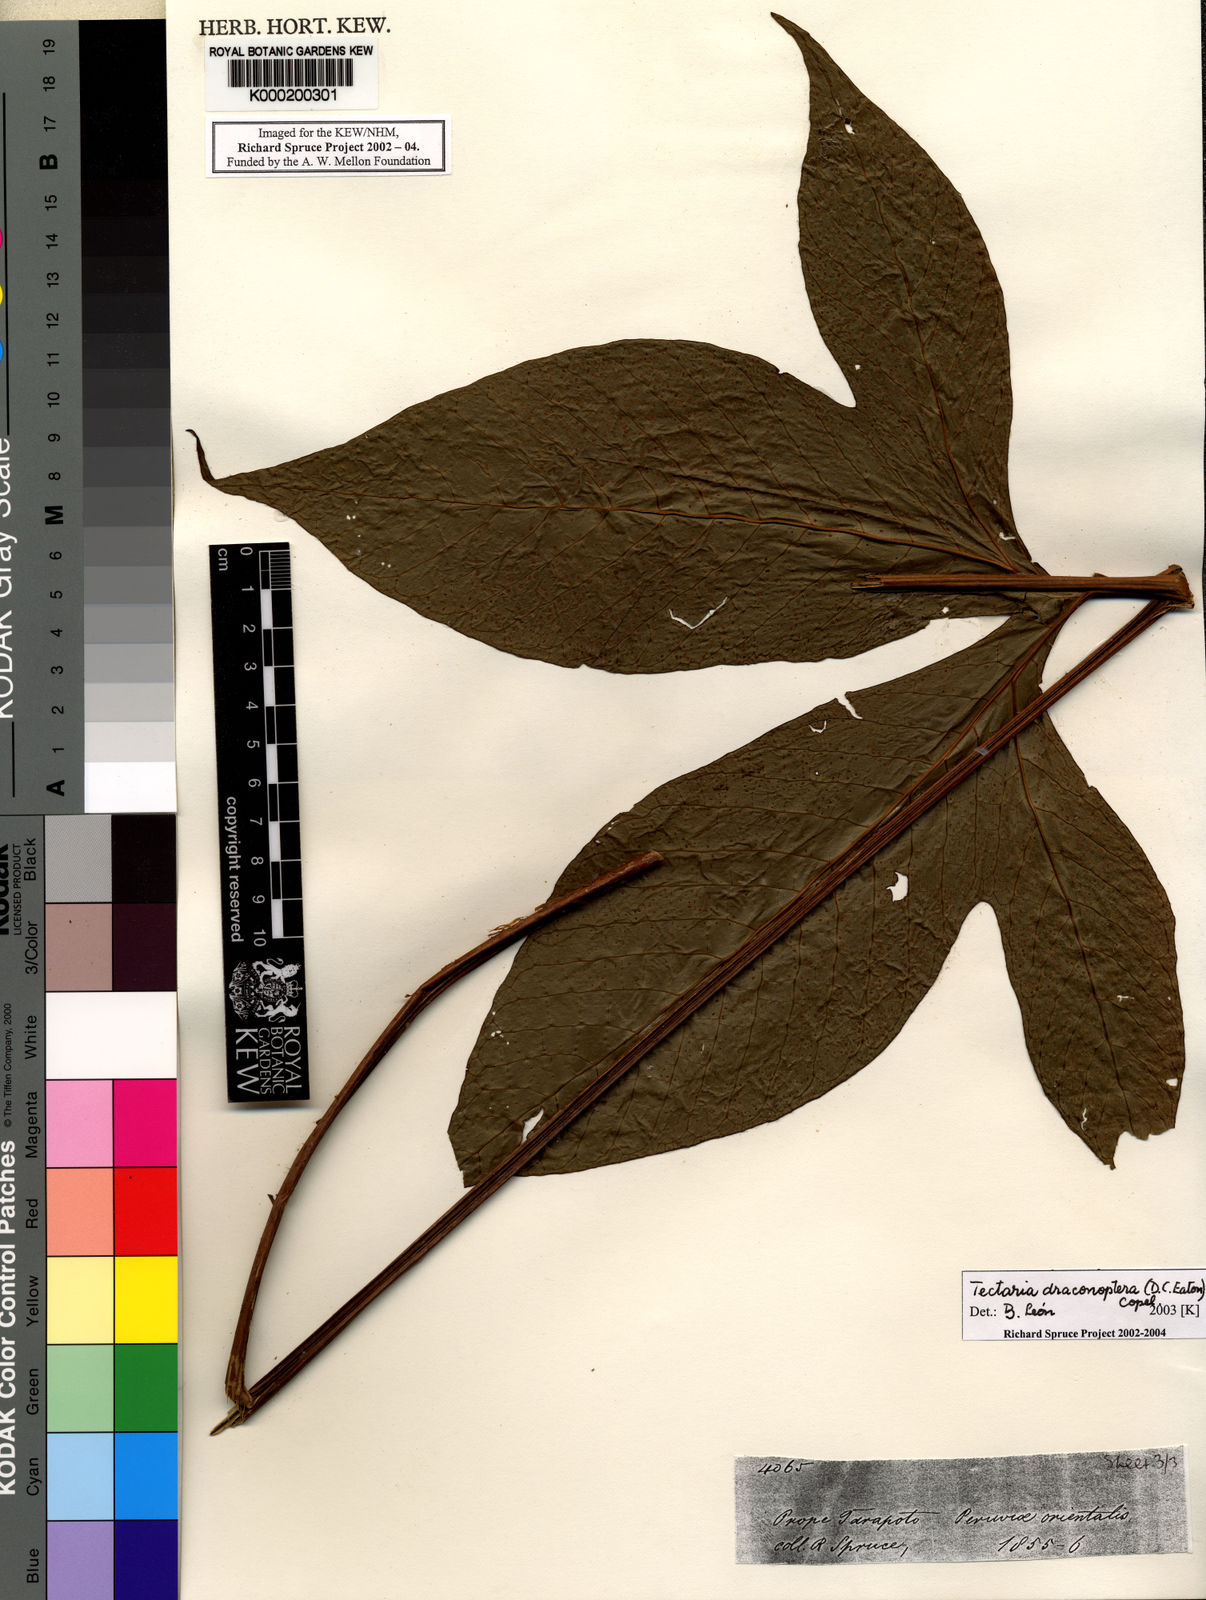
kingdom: Plantae
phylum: Tracheophyta
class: Polypodiopsida
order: Polypodiales
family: Tectariaceae
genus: Draconopteris
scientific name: Draconopteris draconoptera
